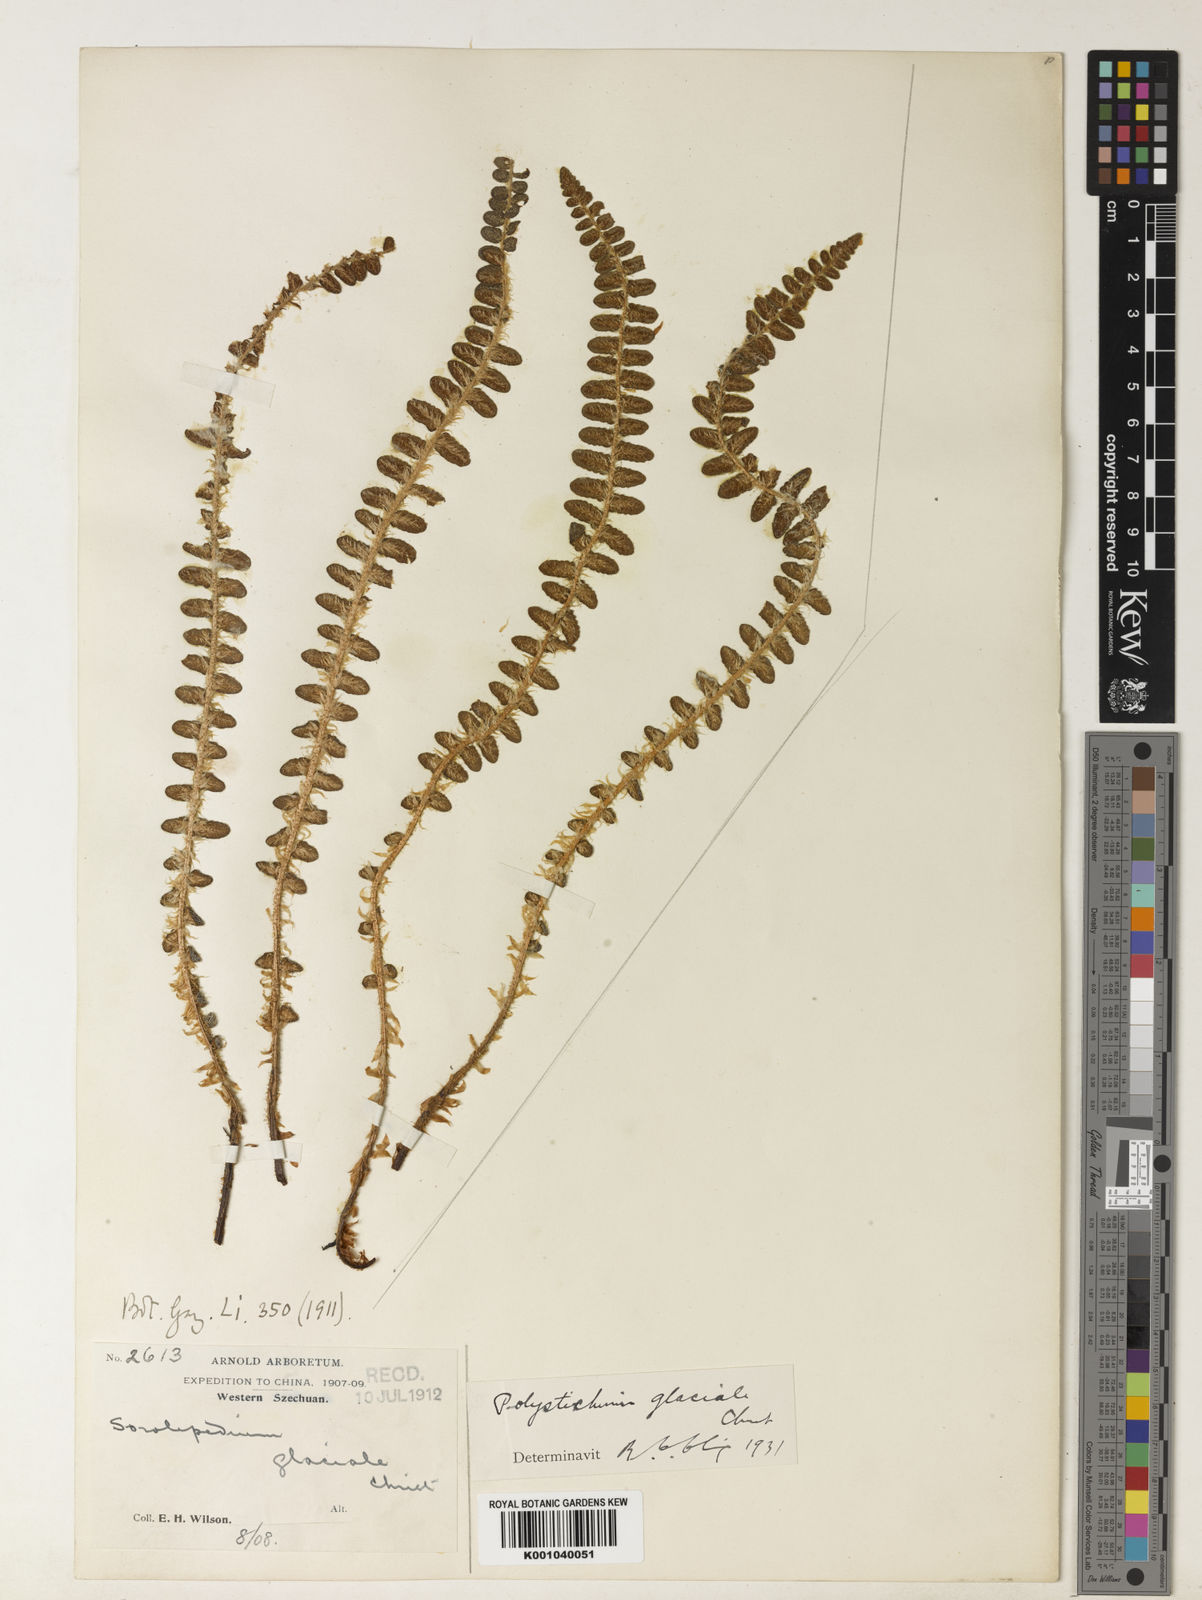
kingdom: Plantae
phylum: Tracheophyta
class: Polypodiopsida
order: Polypodiales
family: Dryopteridaceae
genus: Polystichum
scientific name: Polystichum glaciale
